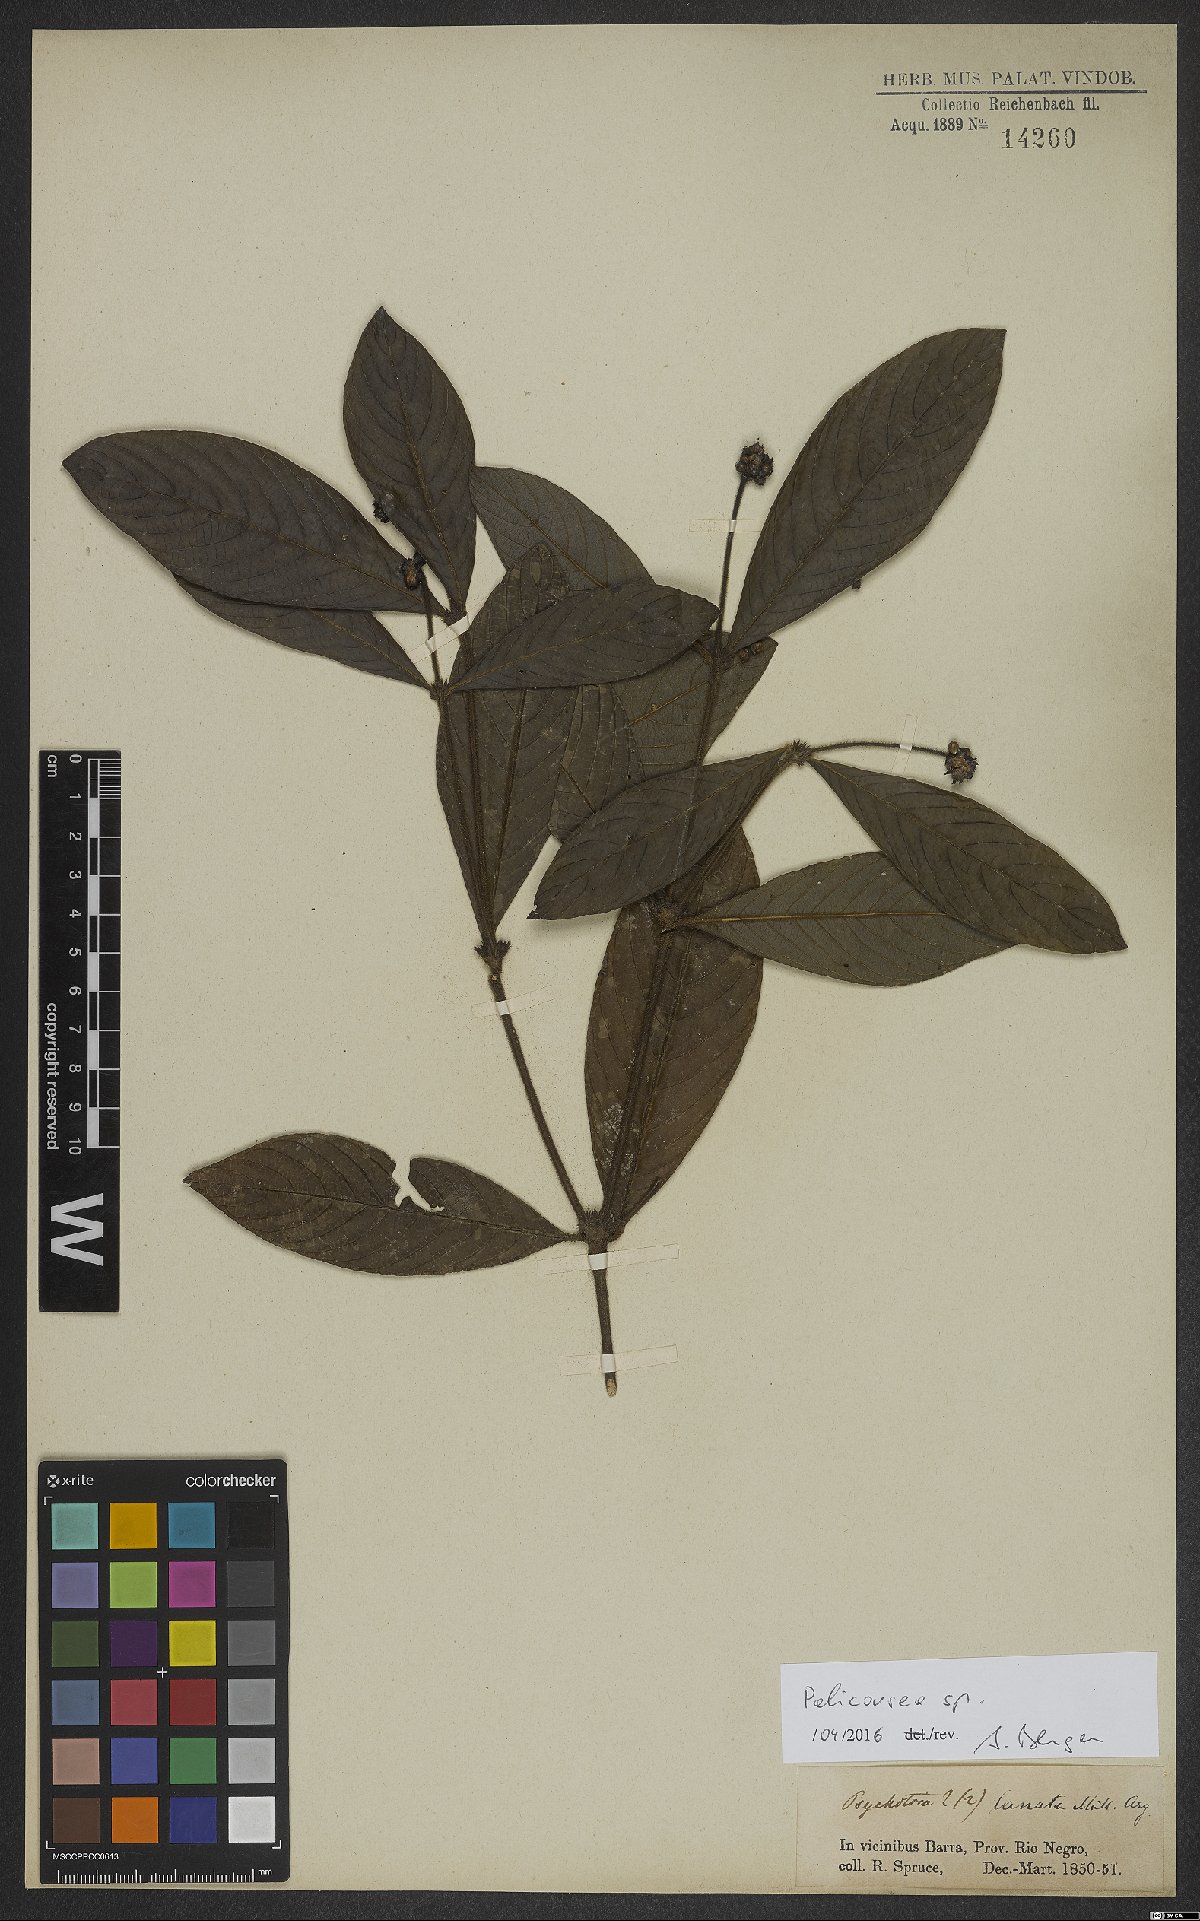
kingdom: Plantae
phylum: Tracheophyta
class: Magnoliopsida
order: Gentianales
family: Rubiaceae
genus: Palicourea
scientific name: Palicourea
